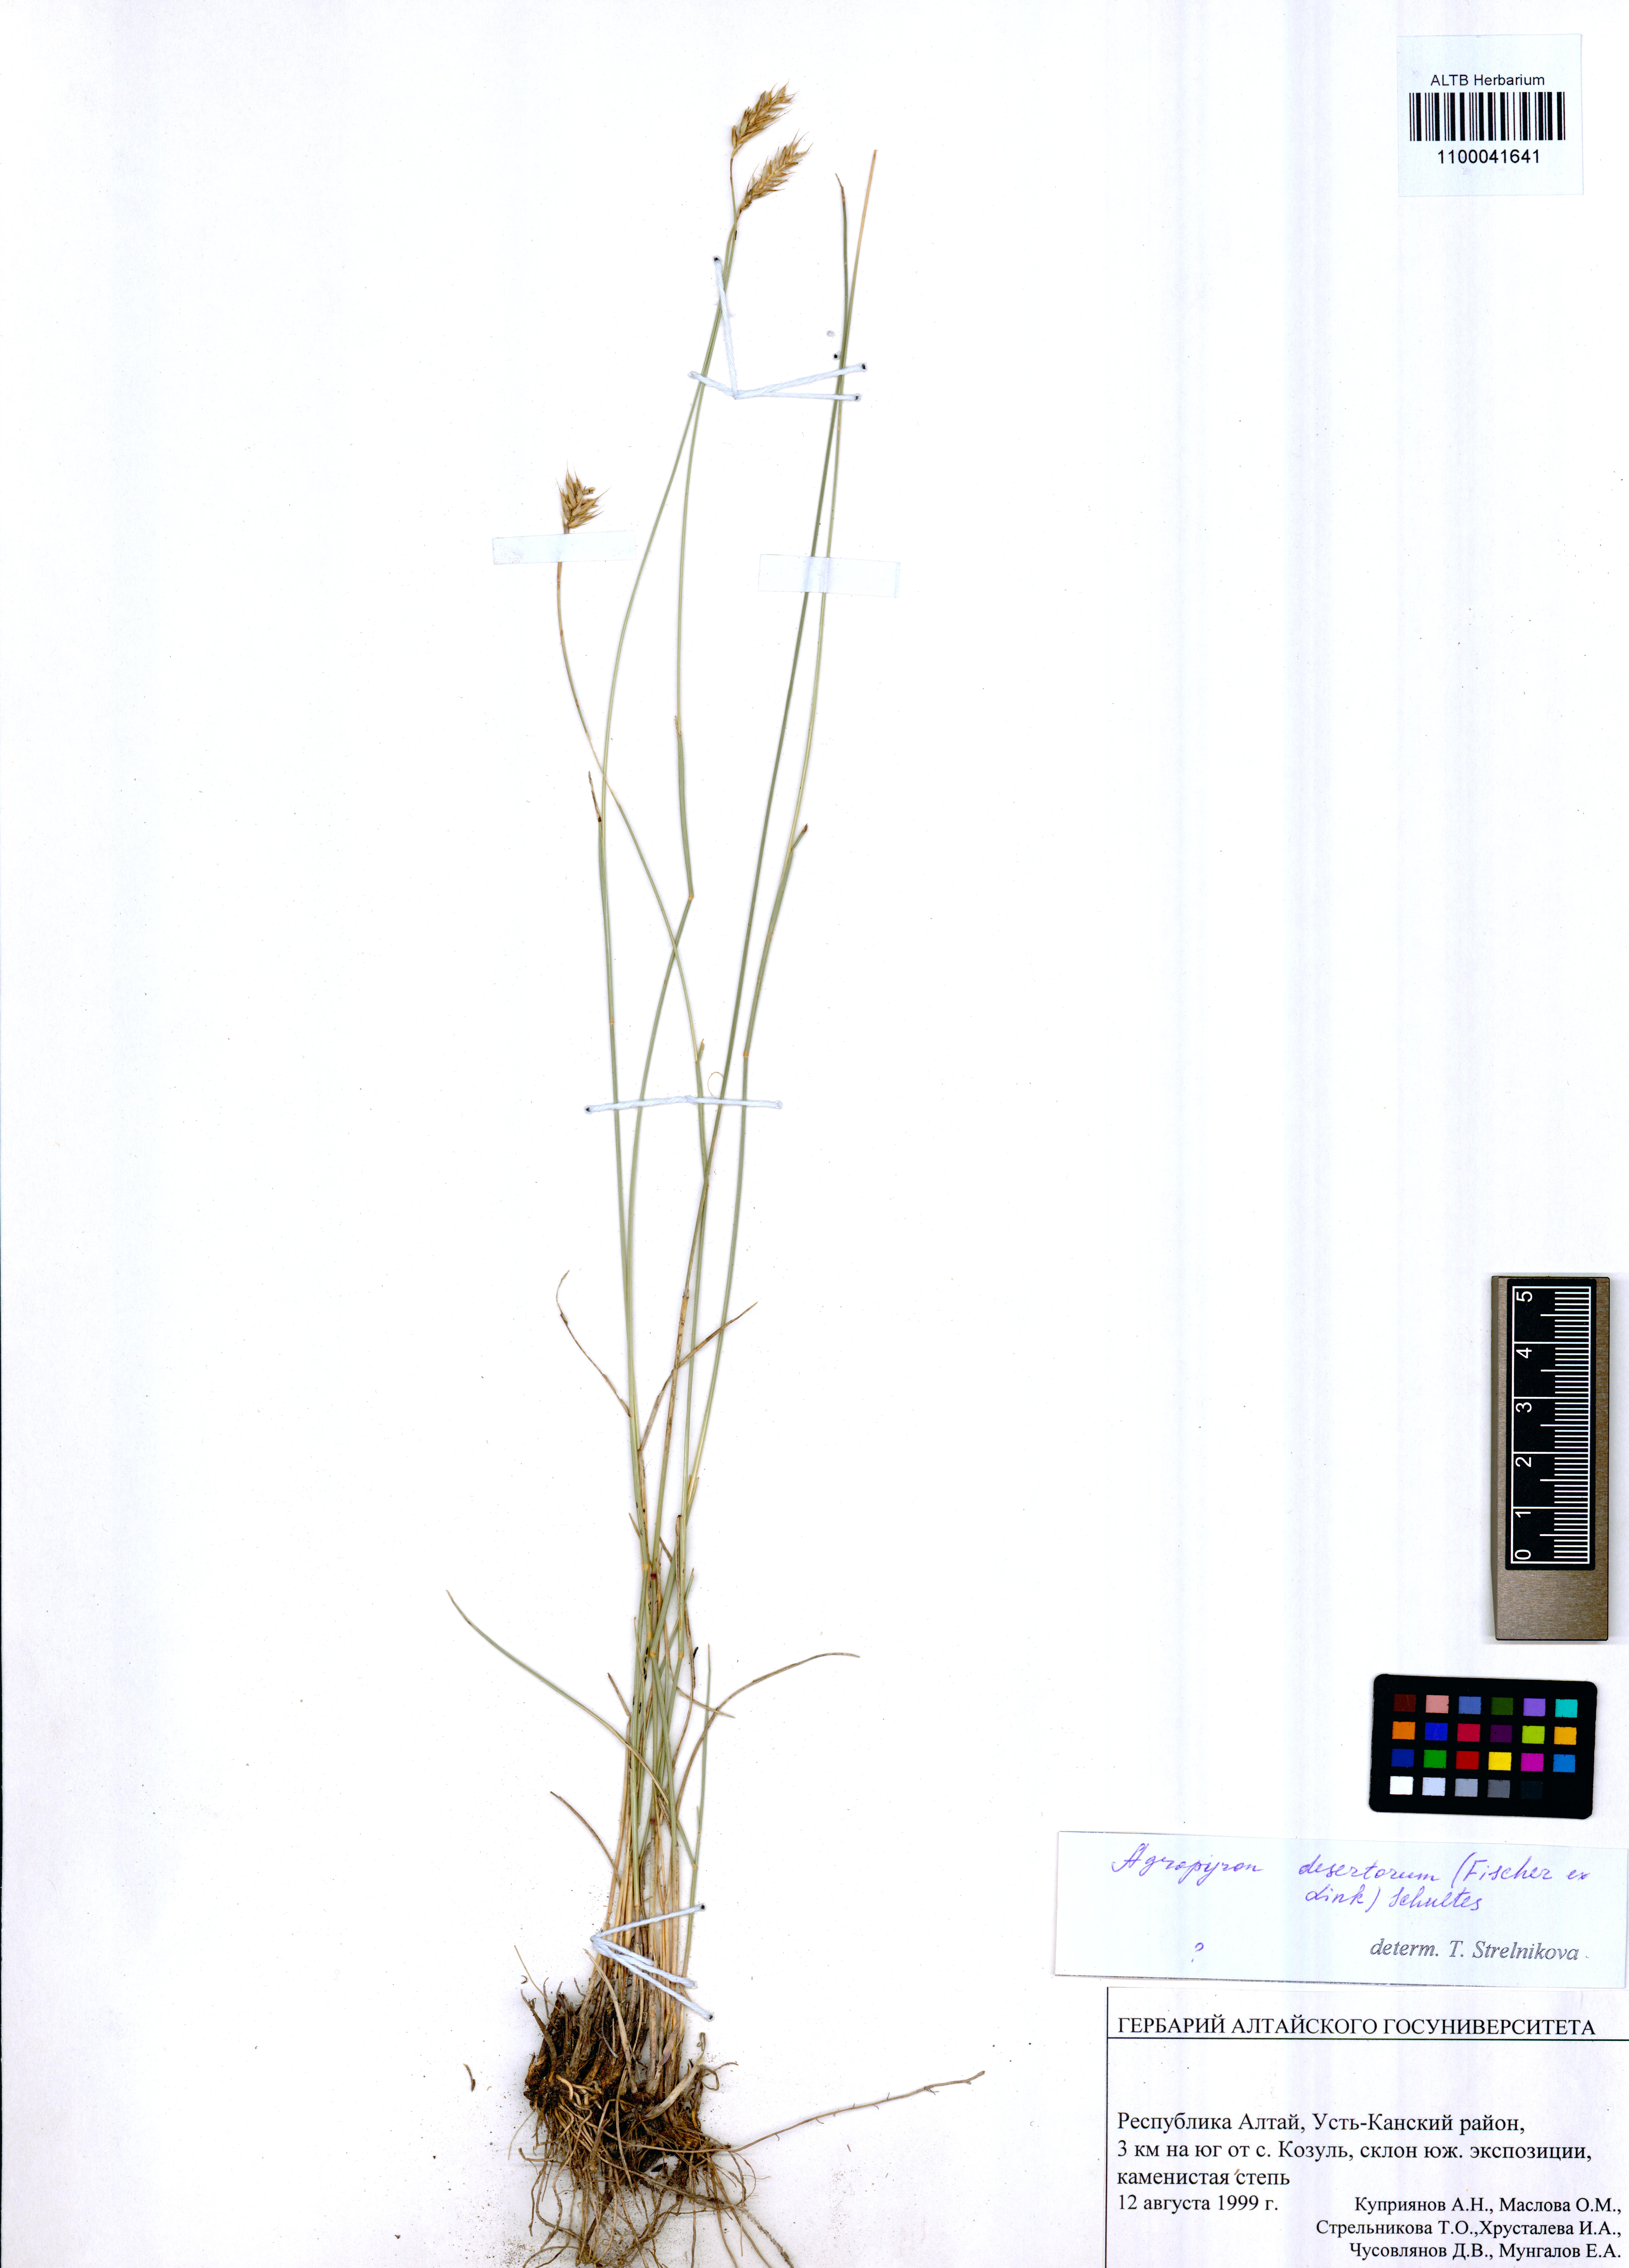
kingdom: Plantae
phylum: Tracheophyta
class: Liliopsida
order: Poales
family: Poaceae
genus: Agropyron
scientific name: Agropyron desertorum
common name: Desert wheatgrass
